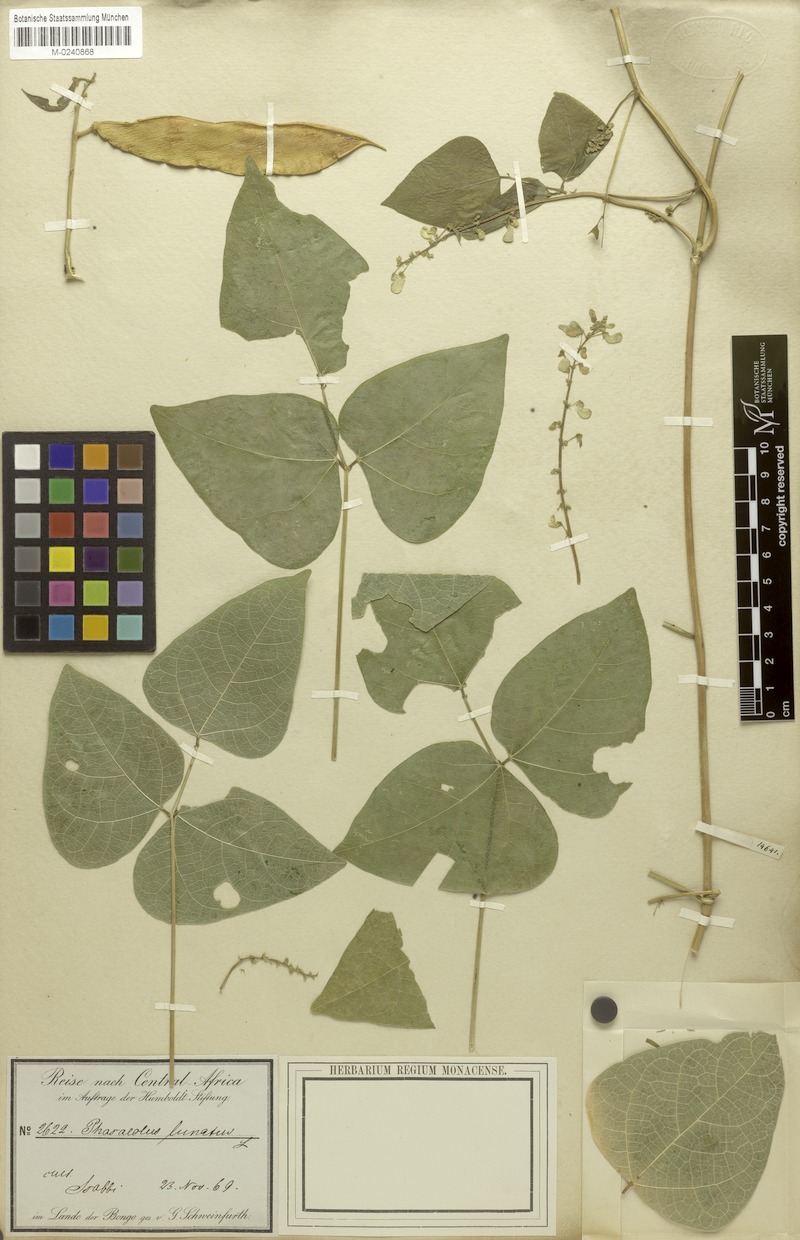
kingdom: Plantae
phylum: Tracheophyta
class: Magnoliopsida
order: Fabales
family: Fabaceae
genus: Phaseolus
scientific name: Phaseolus lunatus
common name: Sieva bean
